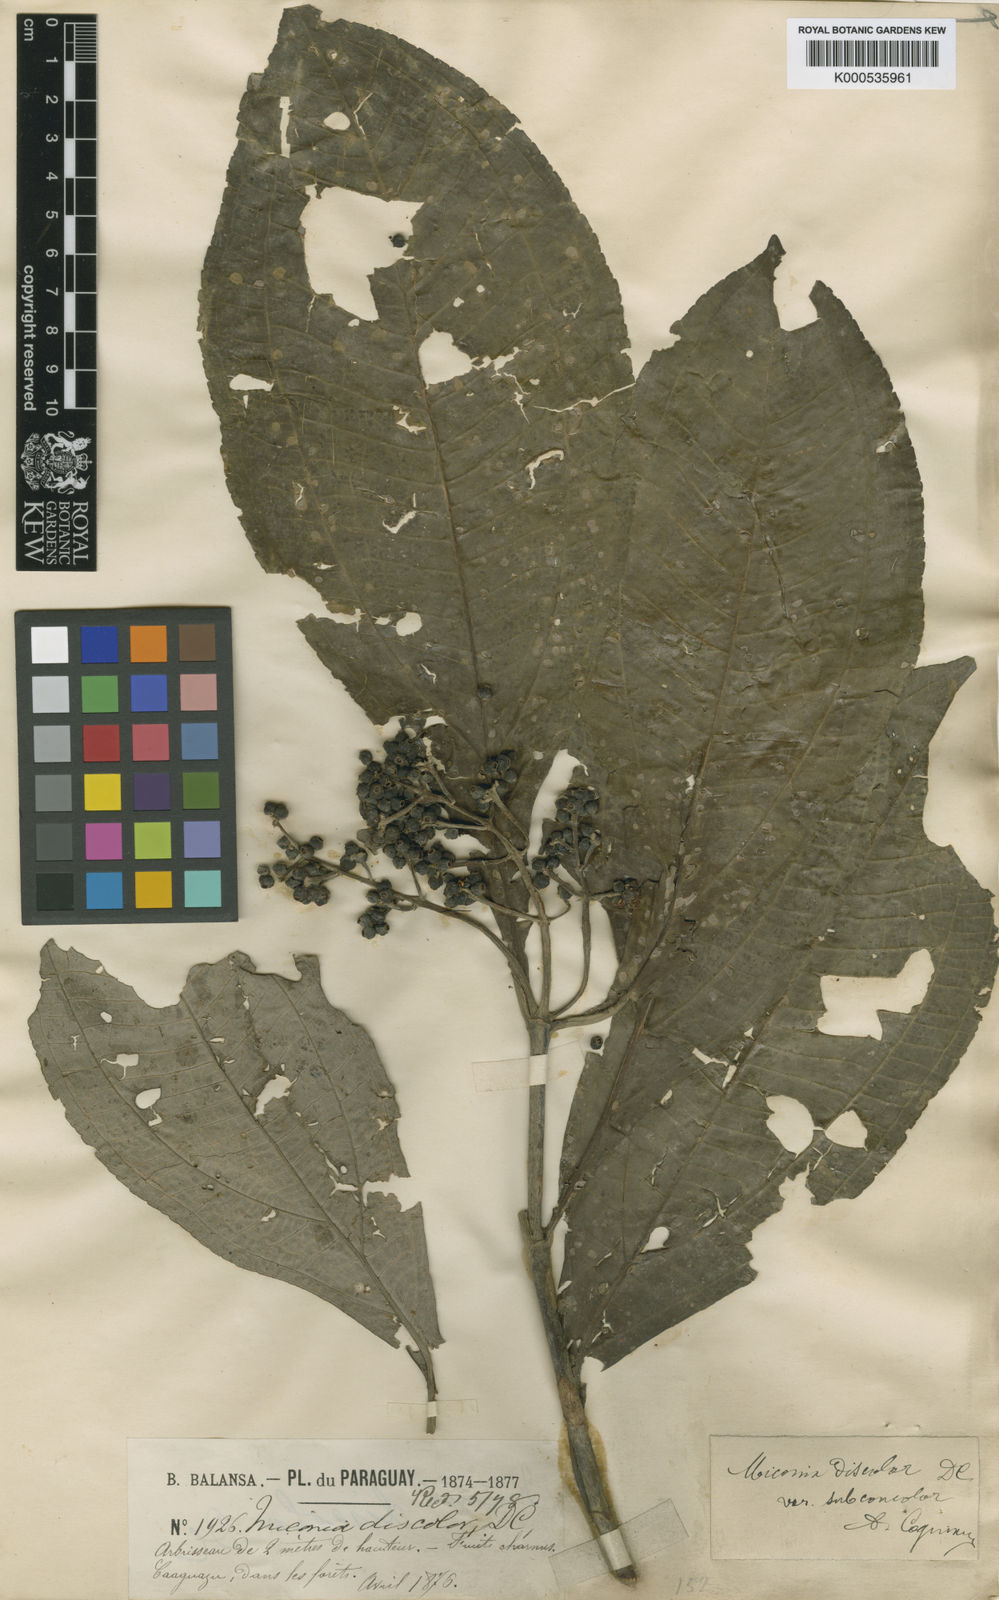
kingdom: Plantae
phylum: Tracheophyta
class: Magnoliopsida
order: Myrtales
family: Melastomataceae
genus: Miconia
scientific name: Miconia discolor
